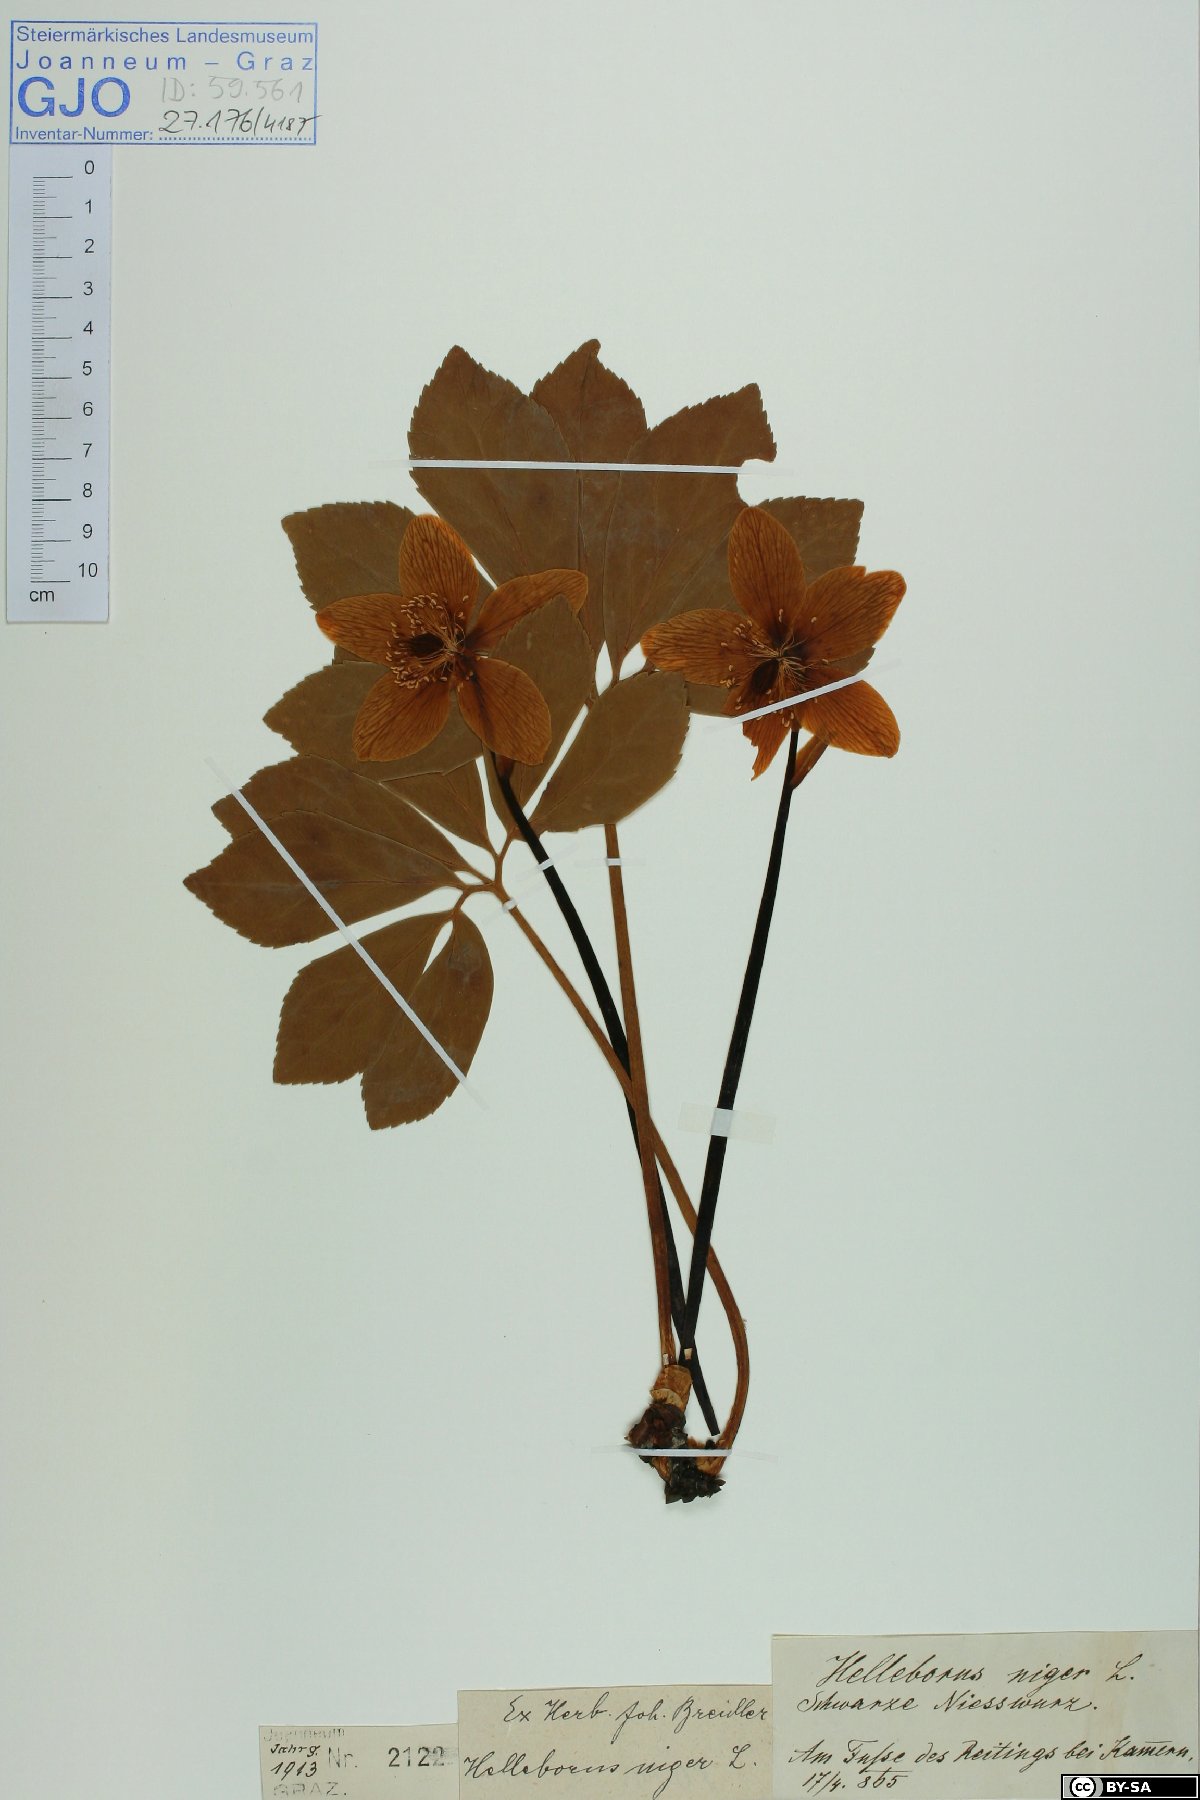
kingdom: Plantae
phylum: Tracheophyta
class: Magnoliopsida
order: Ranunculales
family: Ranunculaceae
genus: Helleborus
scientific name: Helleborus niger
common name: Black hellebore
